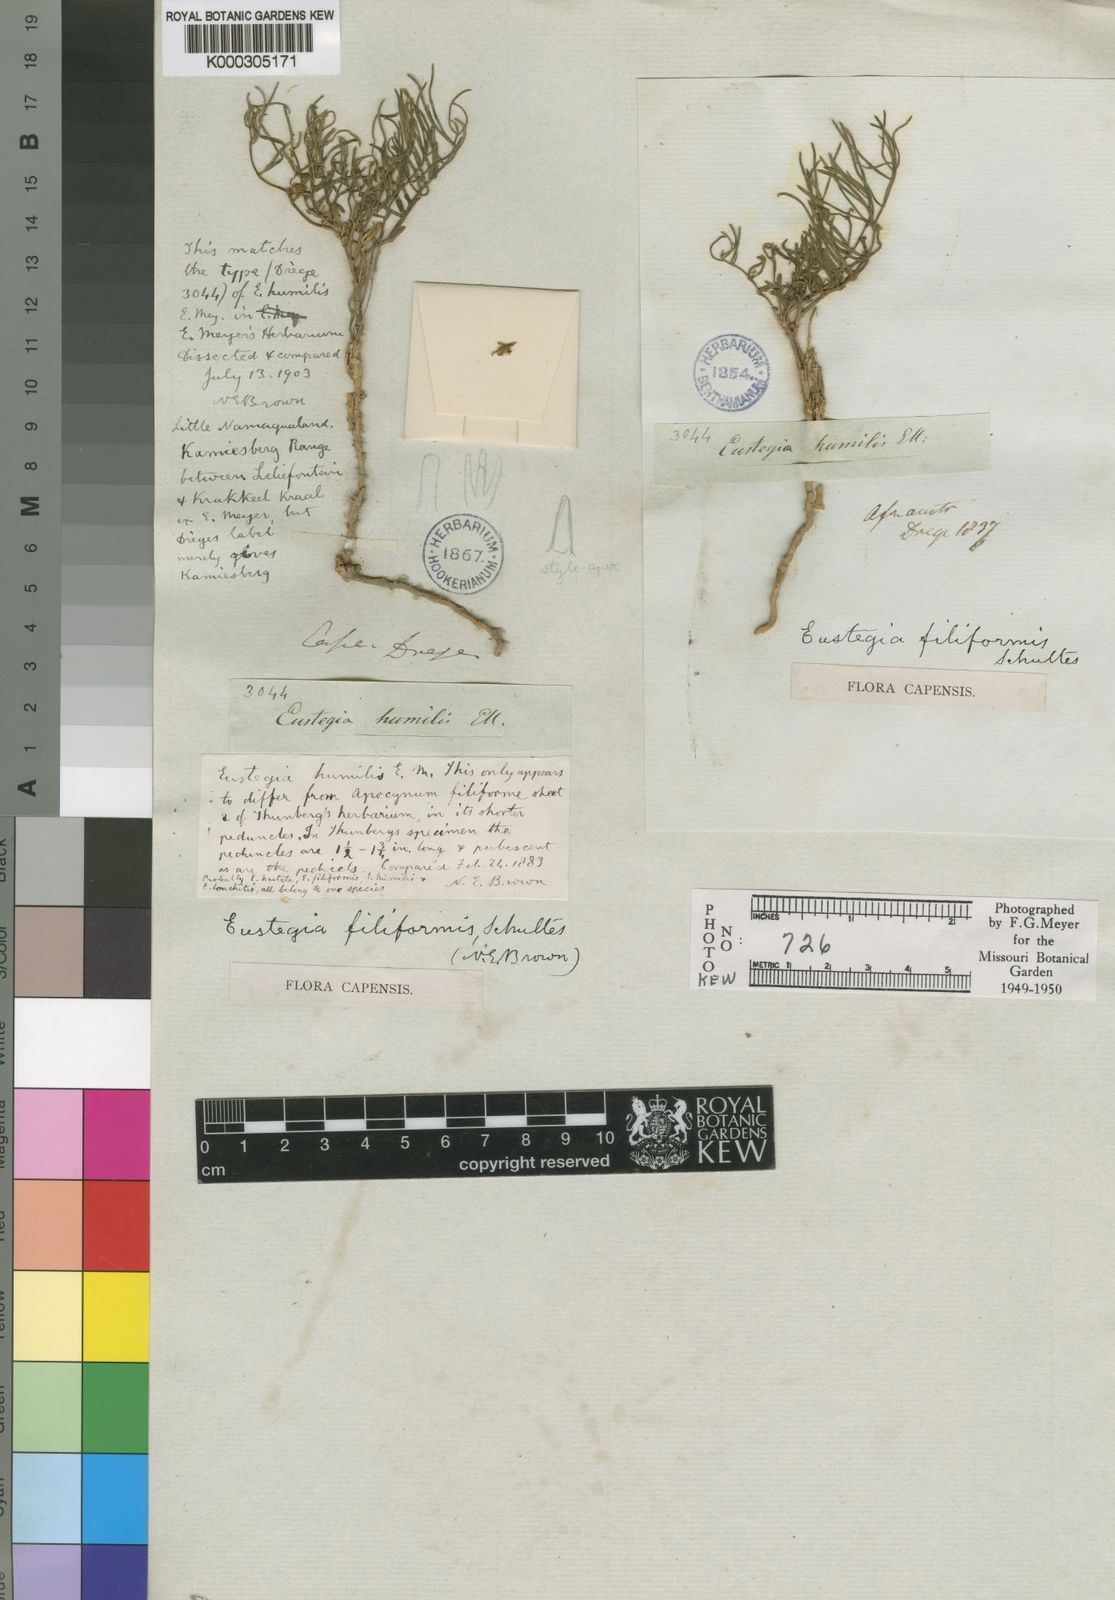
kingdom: Plantae
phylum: Tracheophyta
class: Magnoliopsida
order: Gentianales
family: Apocynaceae
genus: Eustegia
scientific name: Eustegia filiformis
